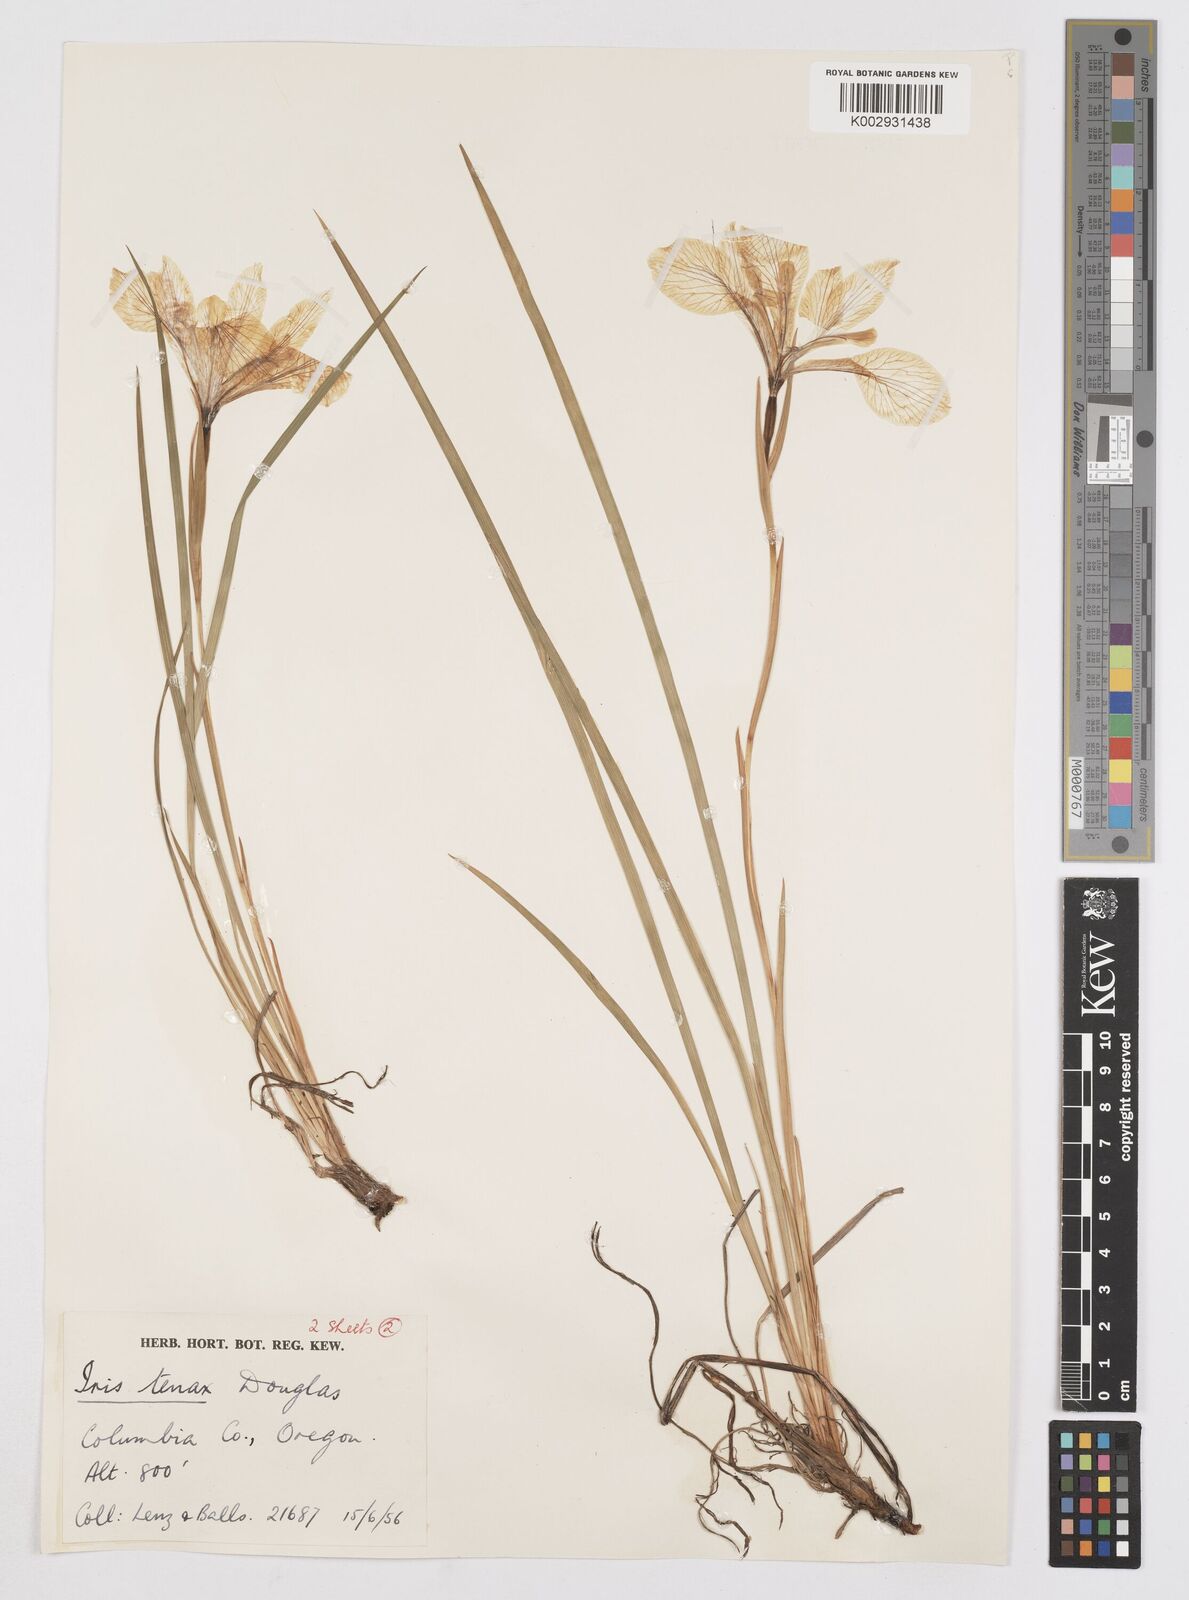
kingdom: Plantae
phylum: Tracheophyta
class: Liliopsida
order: Asparagales
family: Iridaceae
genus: Iris
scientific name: Iris tenax
